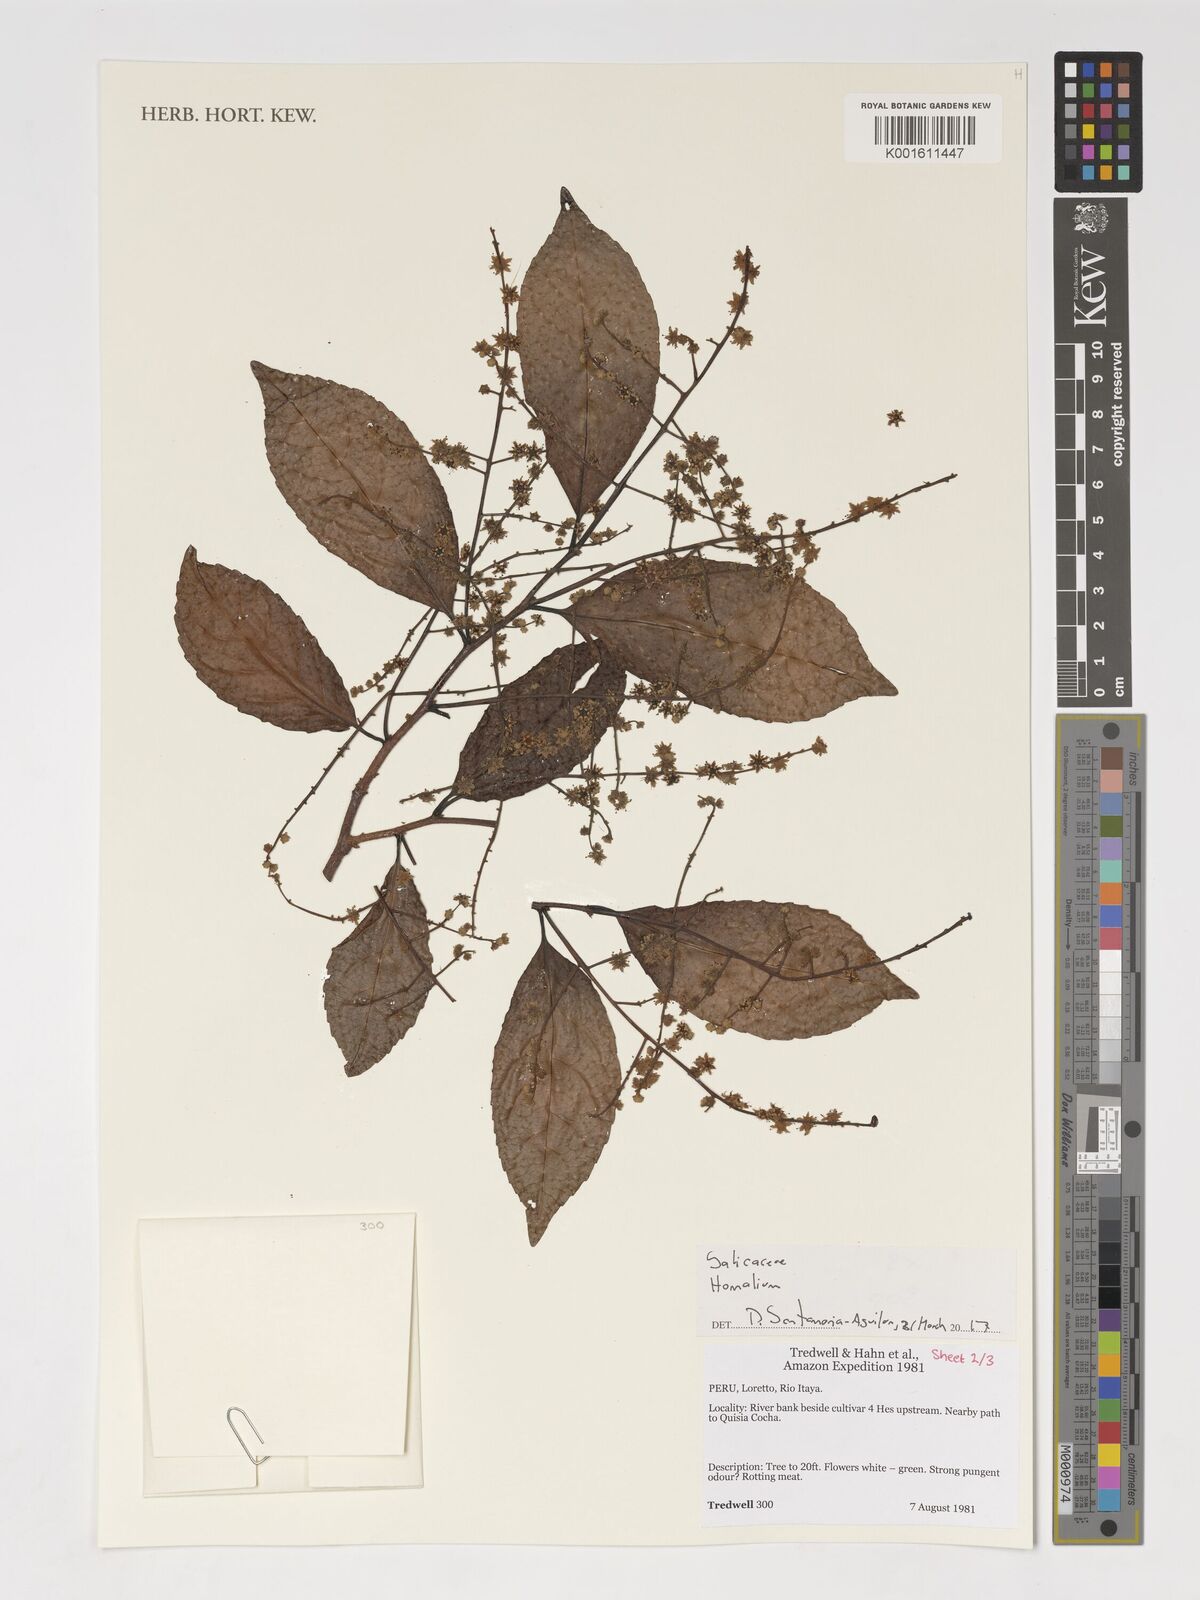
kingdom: Plantae
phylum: Tracheophyta
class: Magnoliopsida
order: Malpighiales
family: Salicaceae
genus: Homalium
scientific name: Homalium
